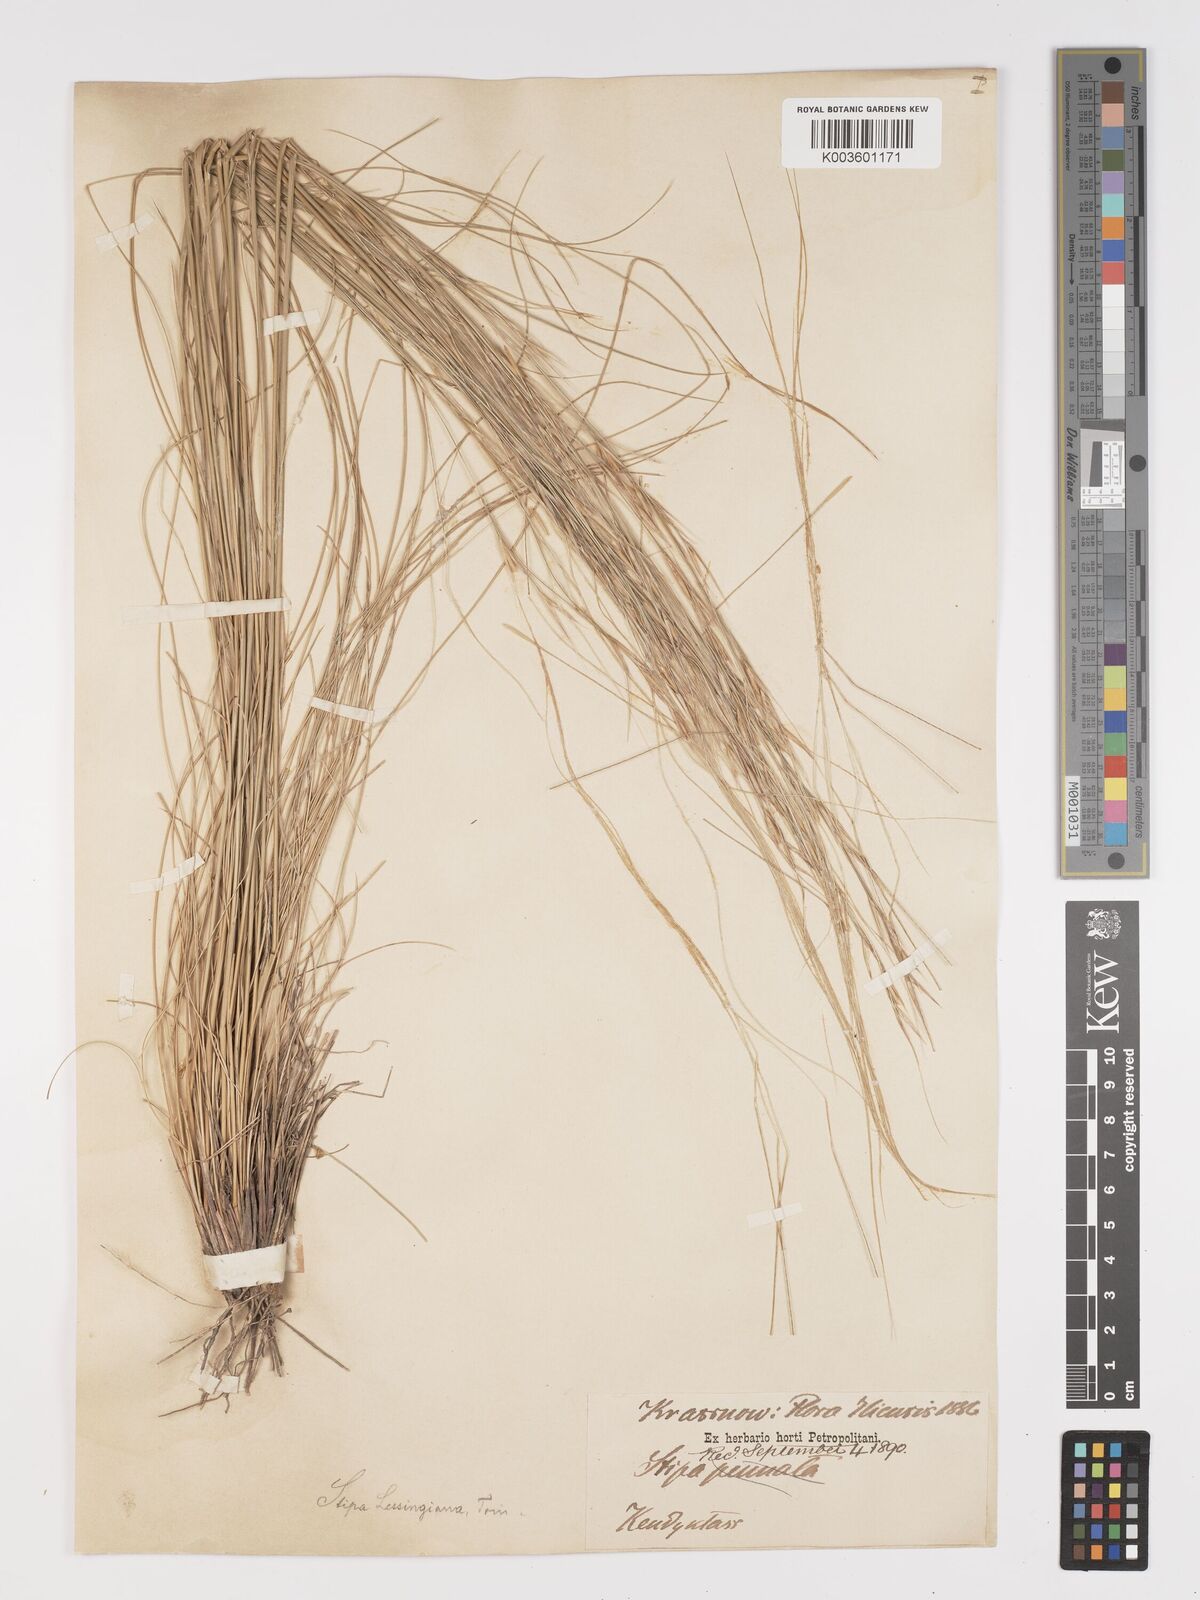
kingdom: Plantae
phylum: Tracheophyta
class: Liliopsida
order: Poales
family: Poaceae
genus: Stipa
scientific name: Stipa lessingiana
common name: Needle grass
